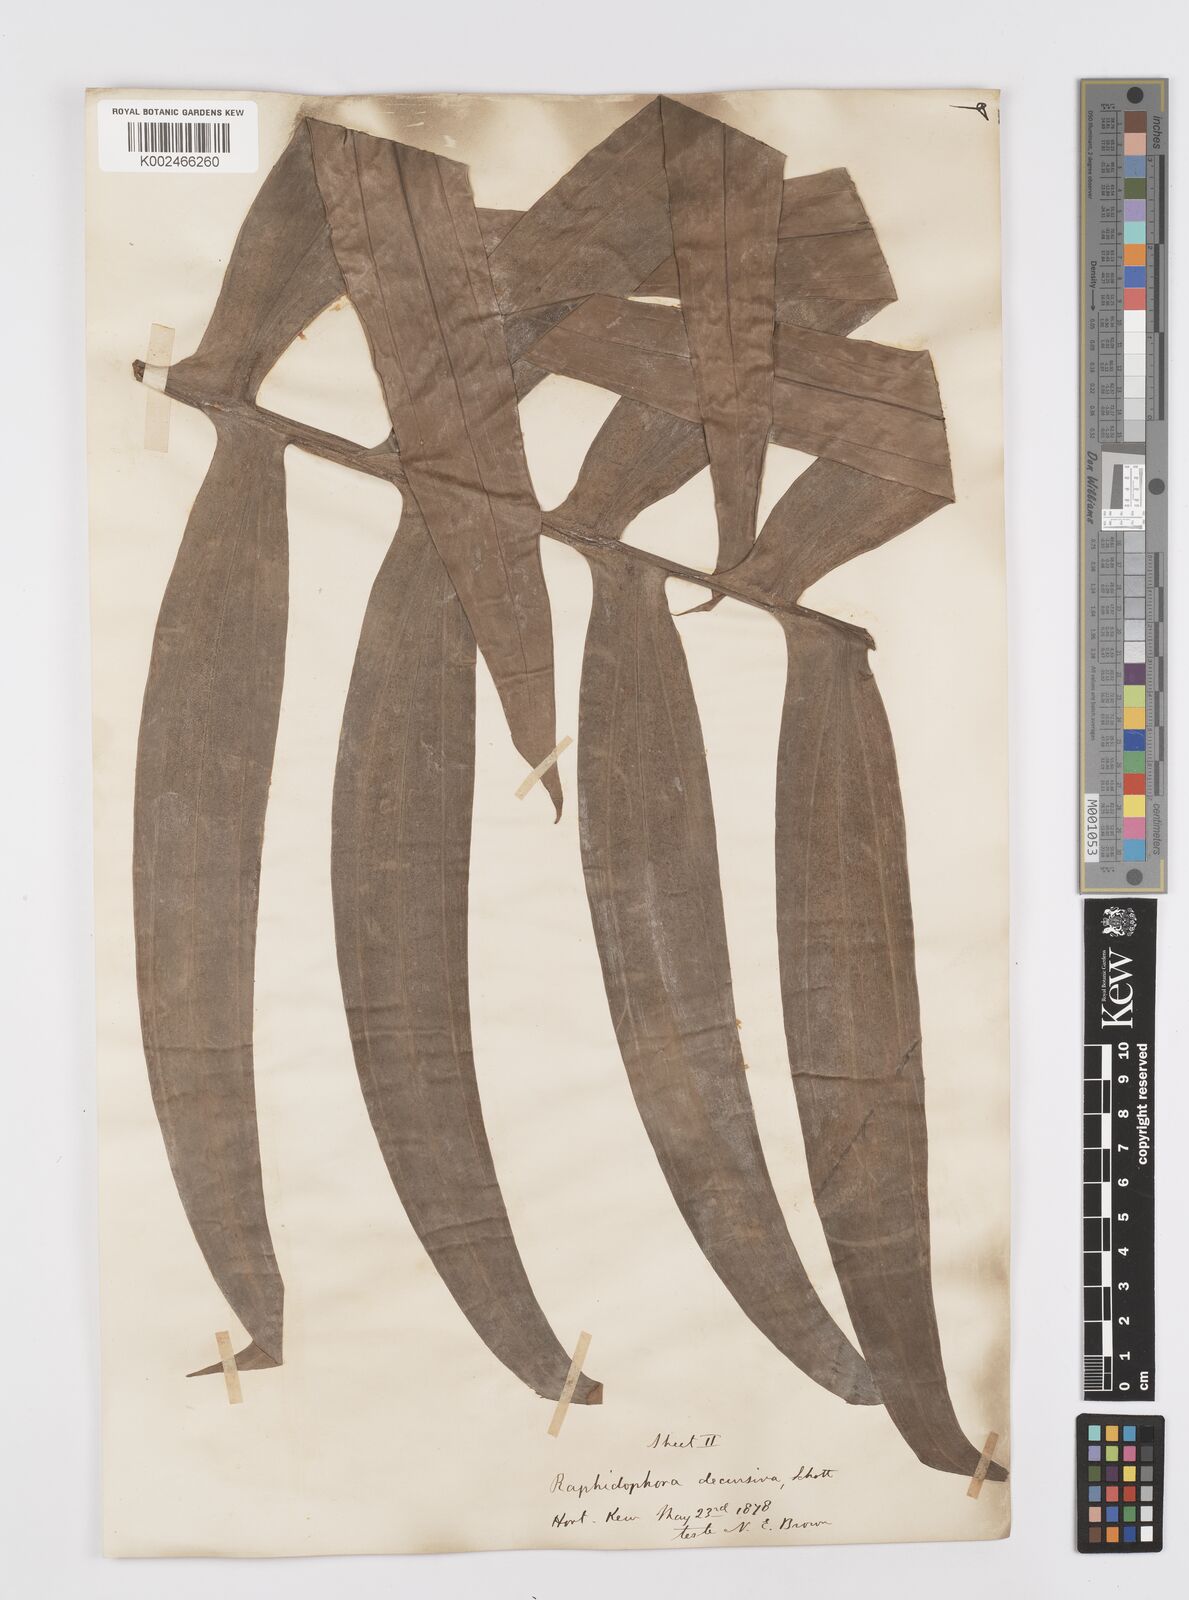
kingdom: Plantae
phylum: Tracheophyta
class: Liliopsida
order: Alismatales
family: Araceae
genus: Rhaphidophora
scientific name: Rhaphidophora decursiva
